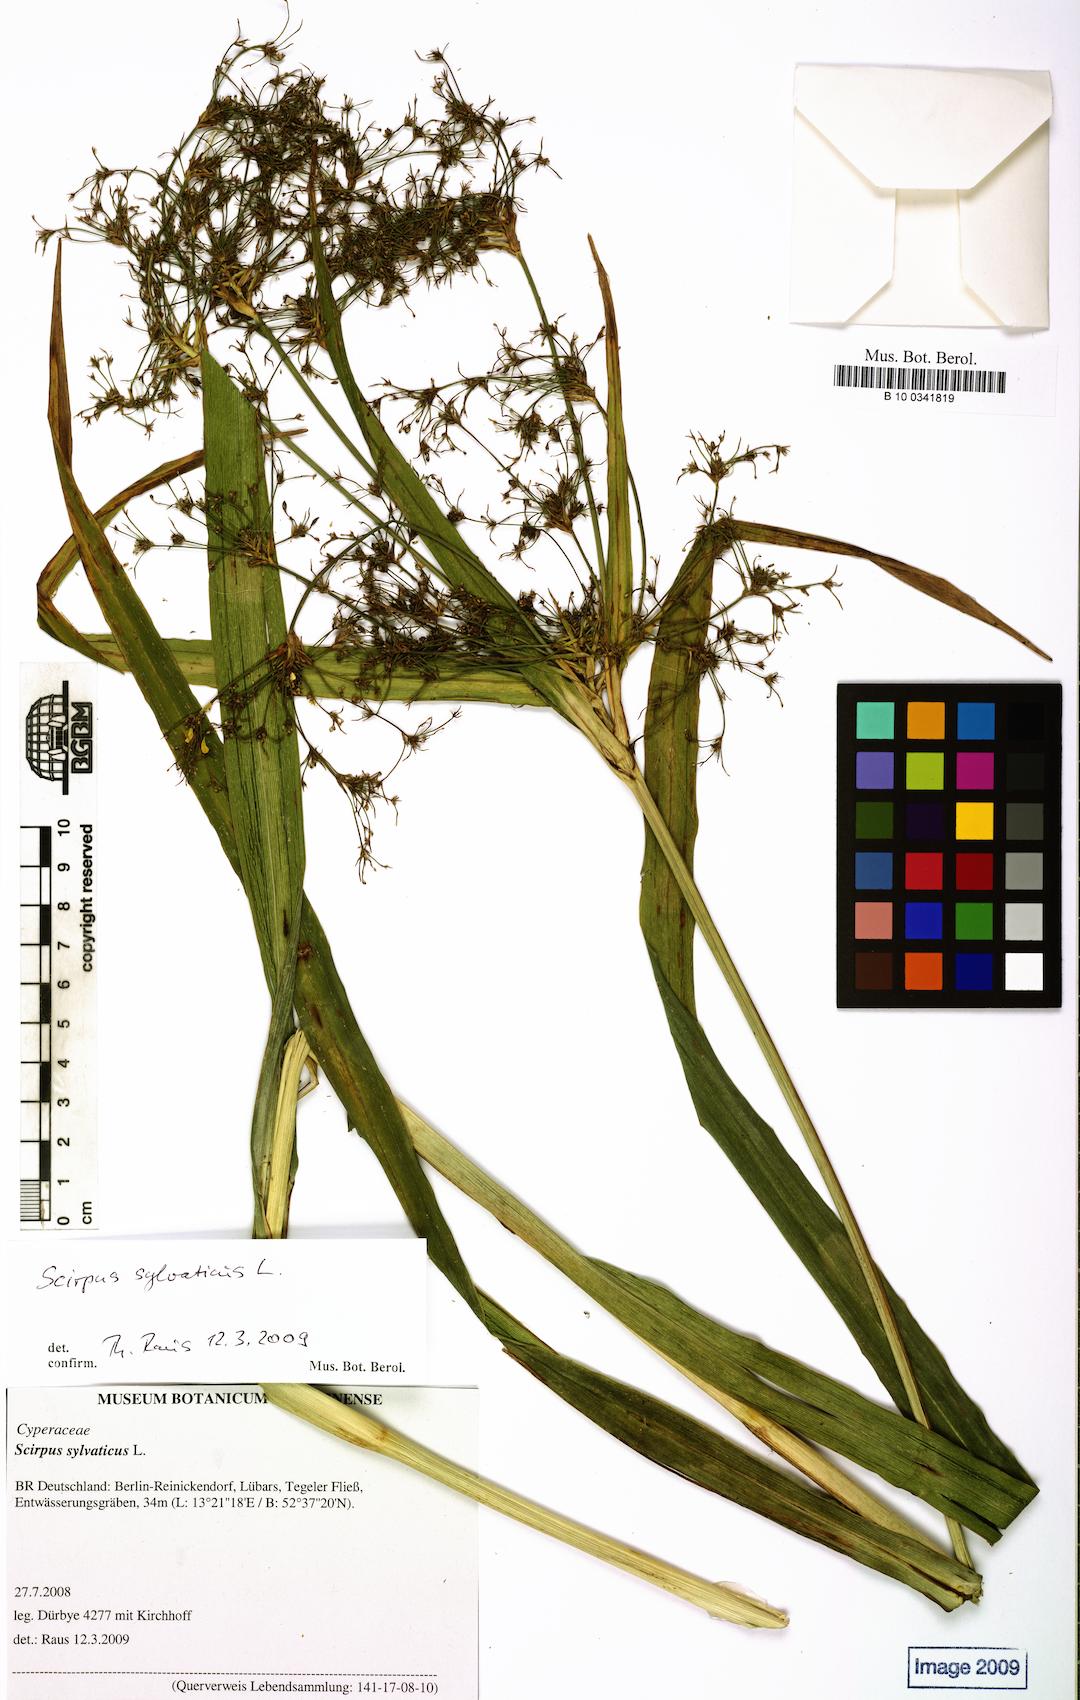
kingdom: Plantae
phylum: Tracheophyta
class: Liliopsida
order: Poales
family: Cyperaceae
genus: Scirpus
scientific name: Scirpus sylvaticus
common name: Wood club-rush
